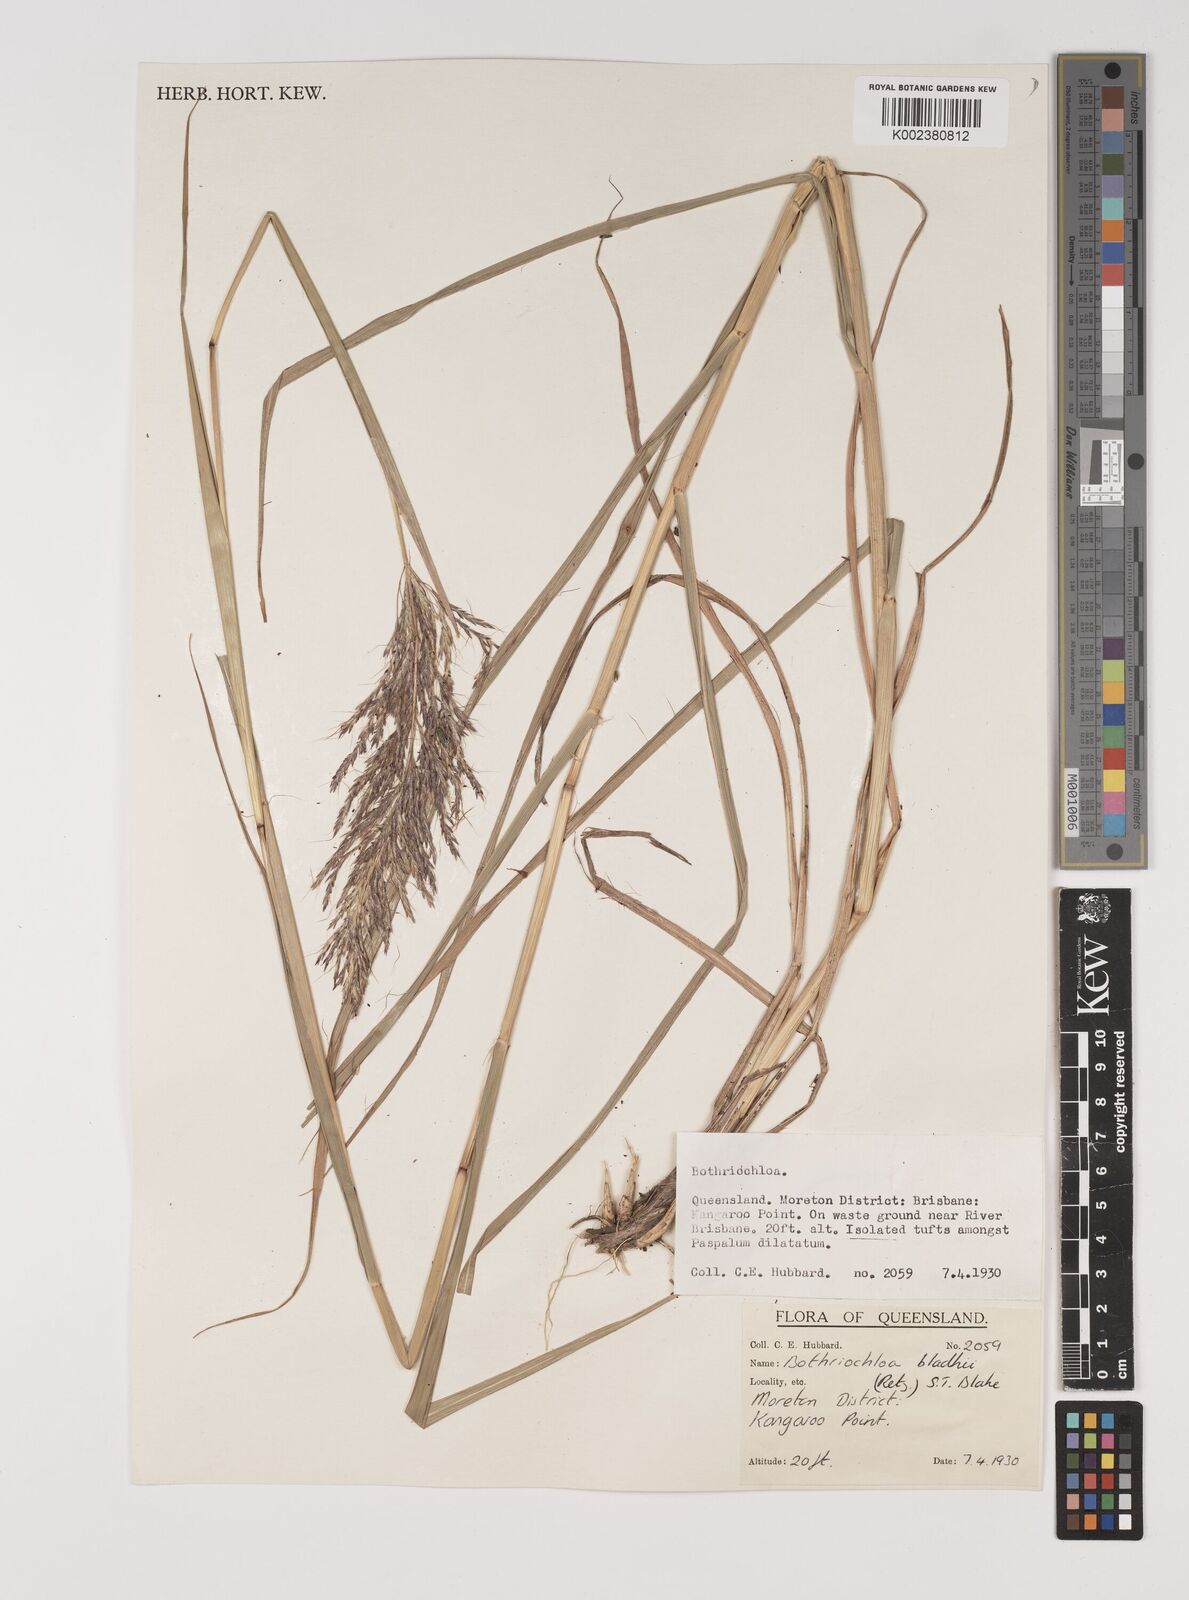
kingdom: Plantae
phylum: Tracheophyta
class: Liliopsida
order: Poales
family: Poaceae
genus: Bothriochloa
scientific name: Bothriochloa bladhii
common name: Caucasian bluestem
